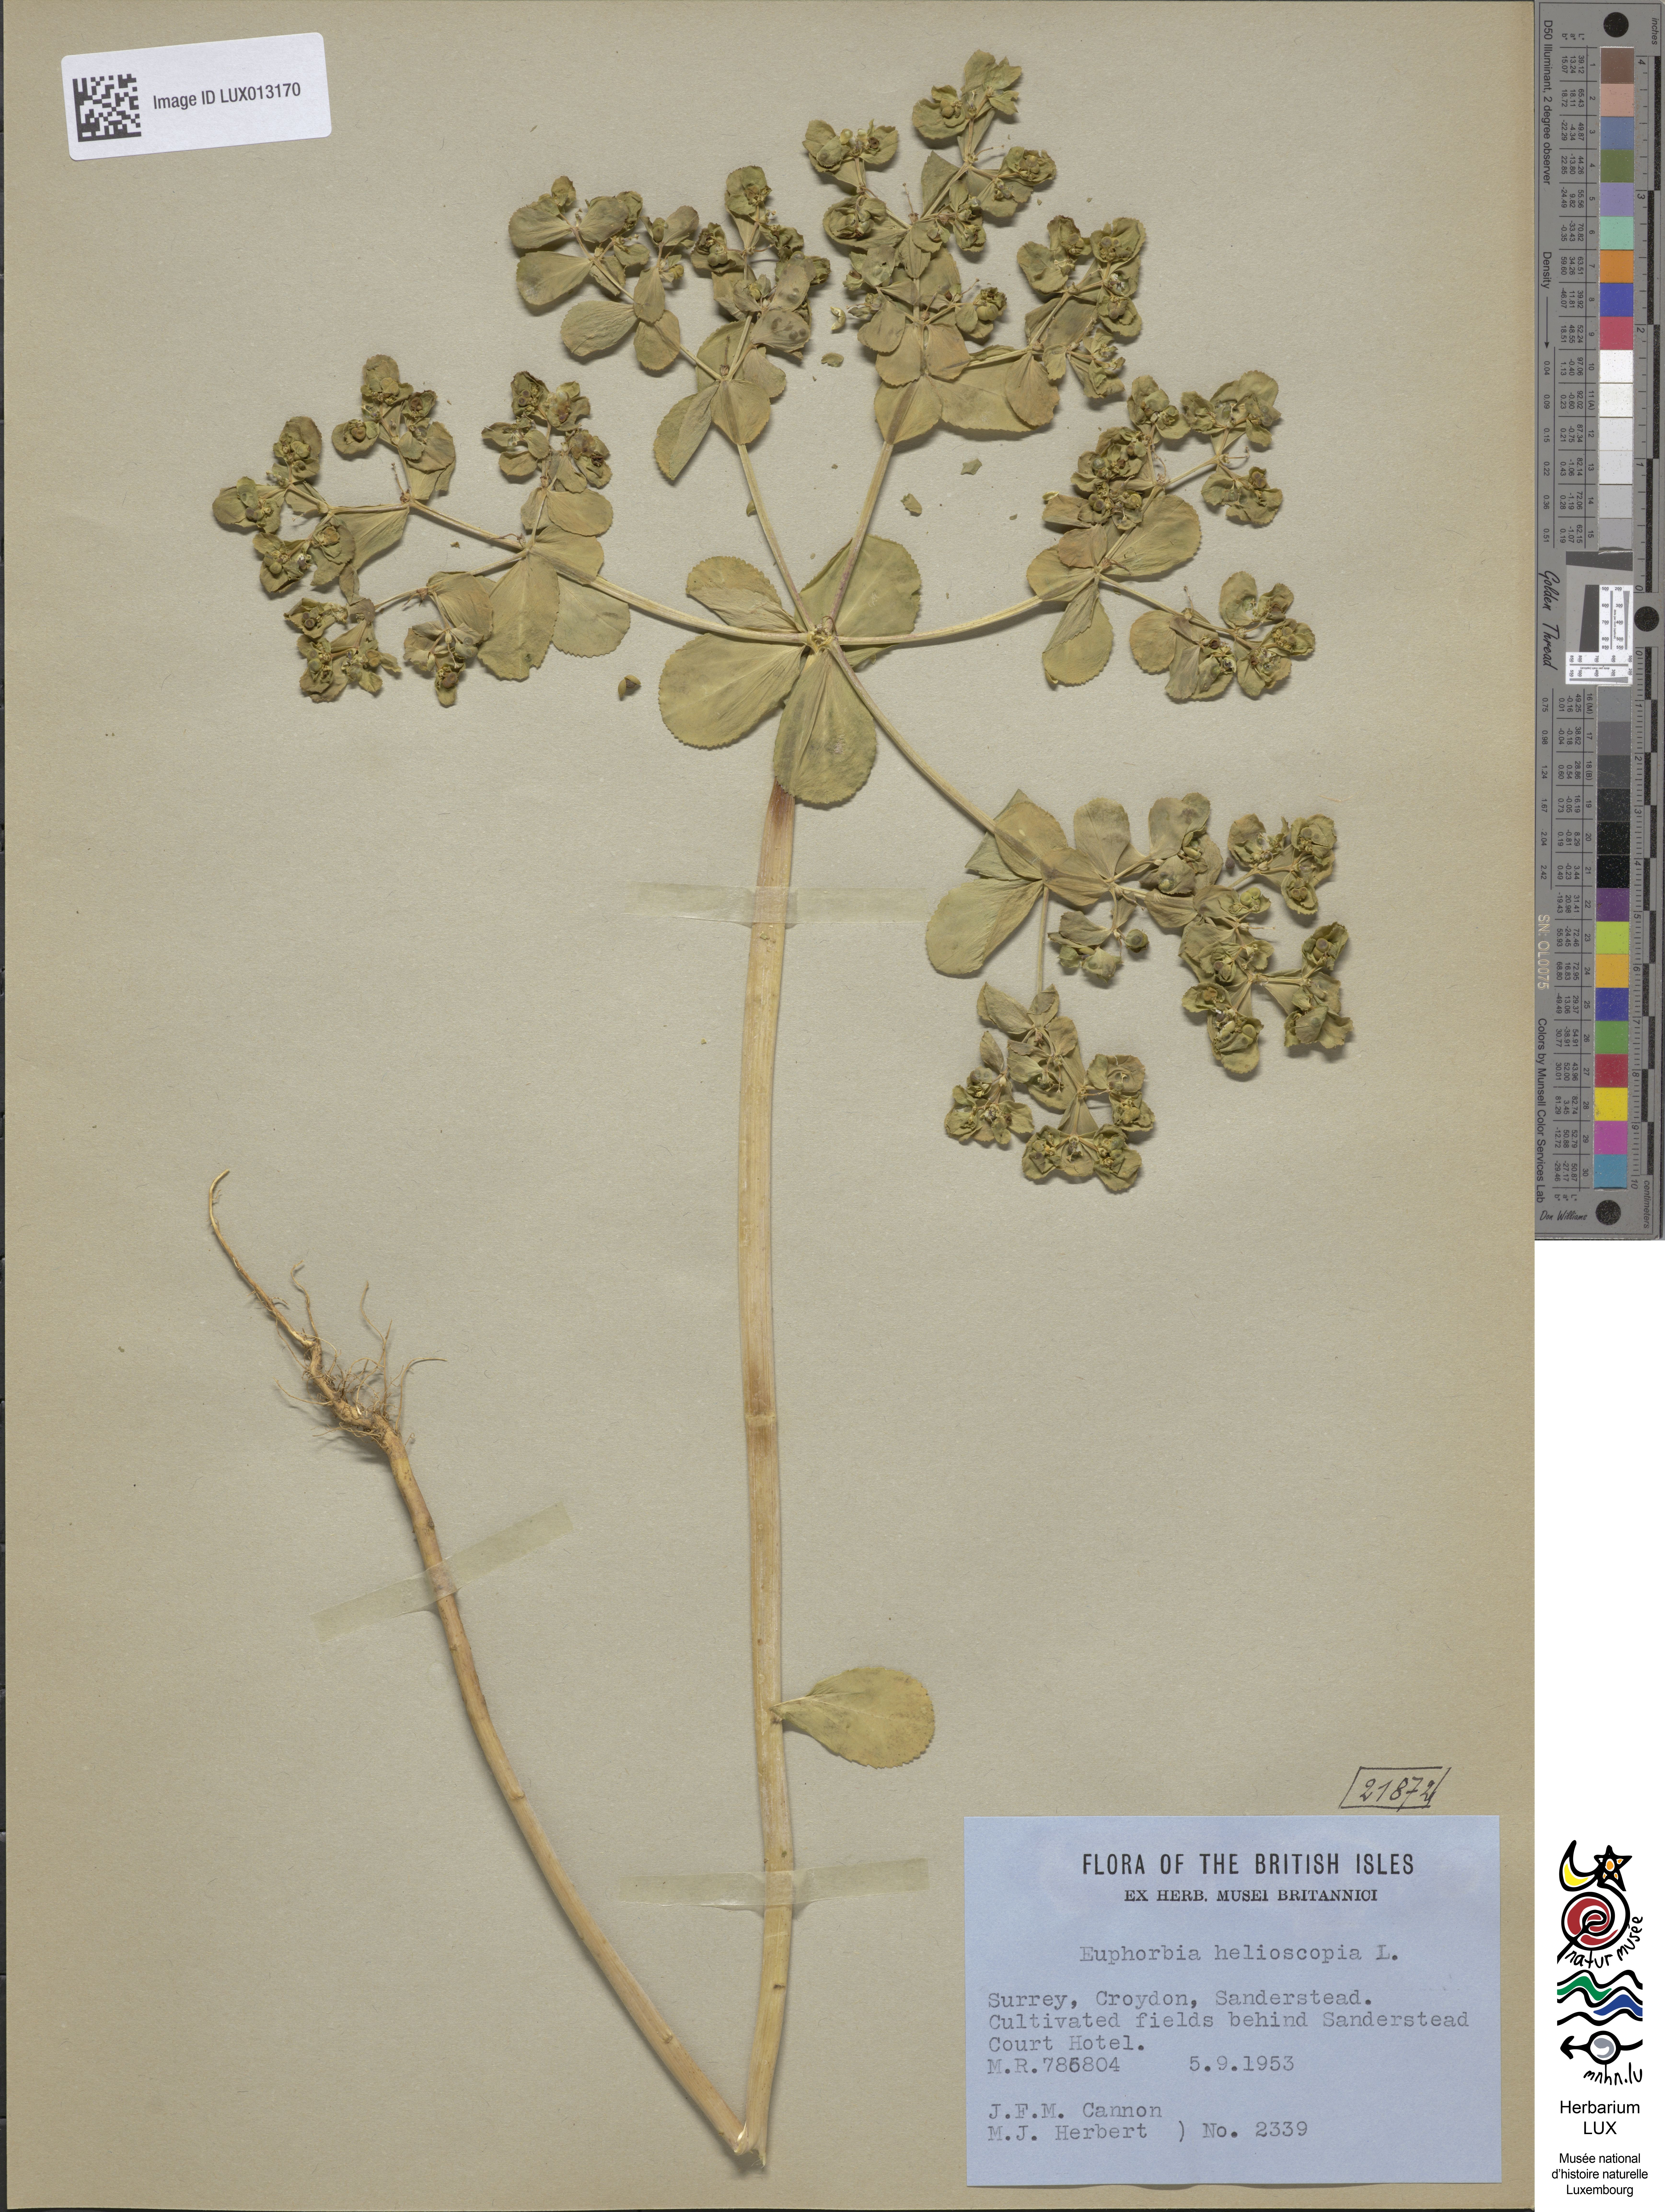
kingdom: Plantae
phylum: Tracheophyta
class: Magnoliopsida
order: Malpighiales
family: Euphorbiaceae
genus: Euphorbia
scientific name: Euphorbia helioscopia
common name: Sun spurge
